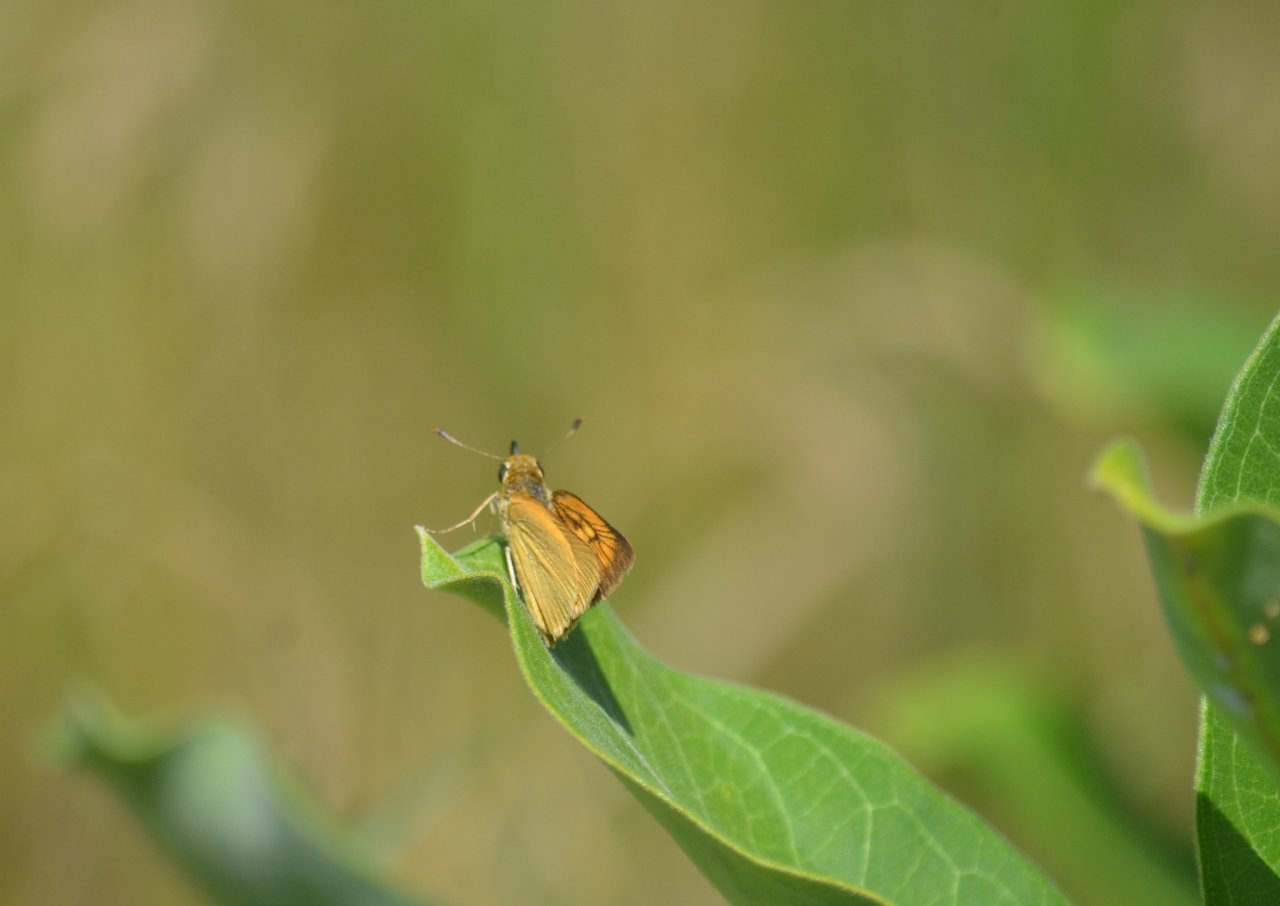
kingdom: Animalia
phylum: Arthropoda
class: Insecta
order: Lepidoptera
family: Hesperiidae
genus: Atrytone
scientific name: Atrytone delaware
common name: Delaware Skipper
